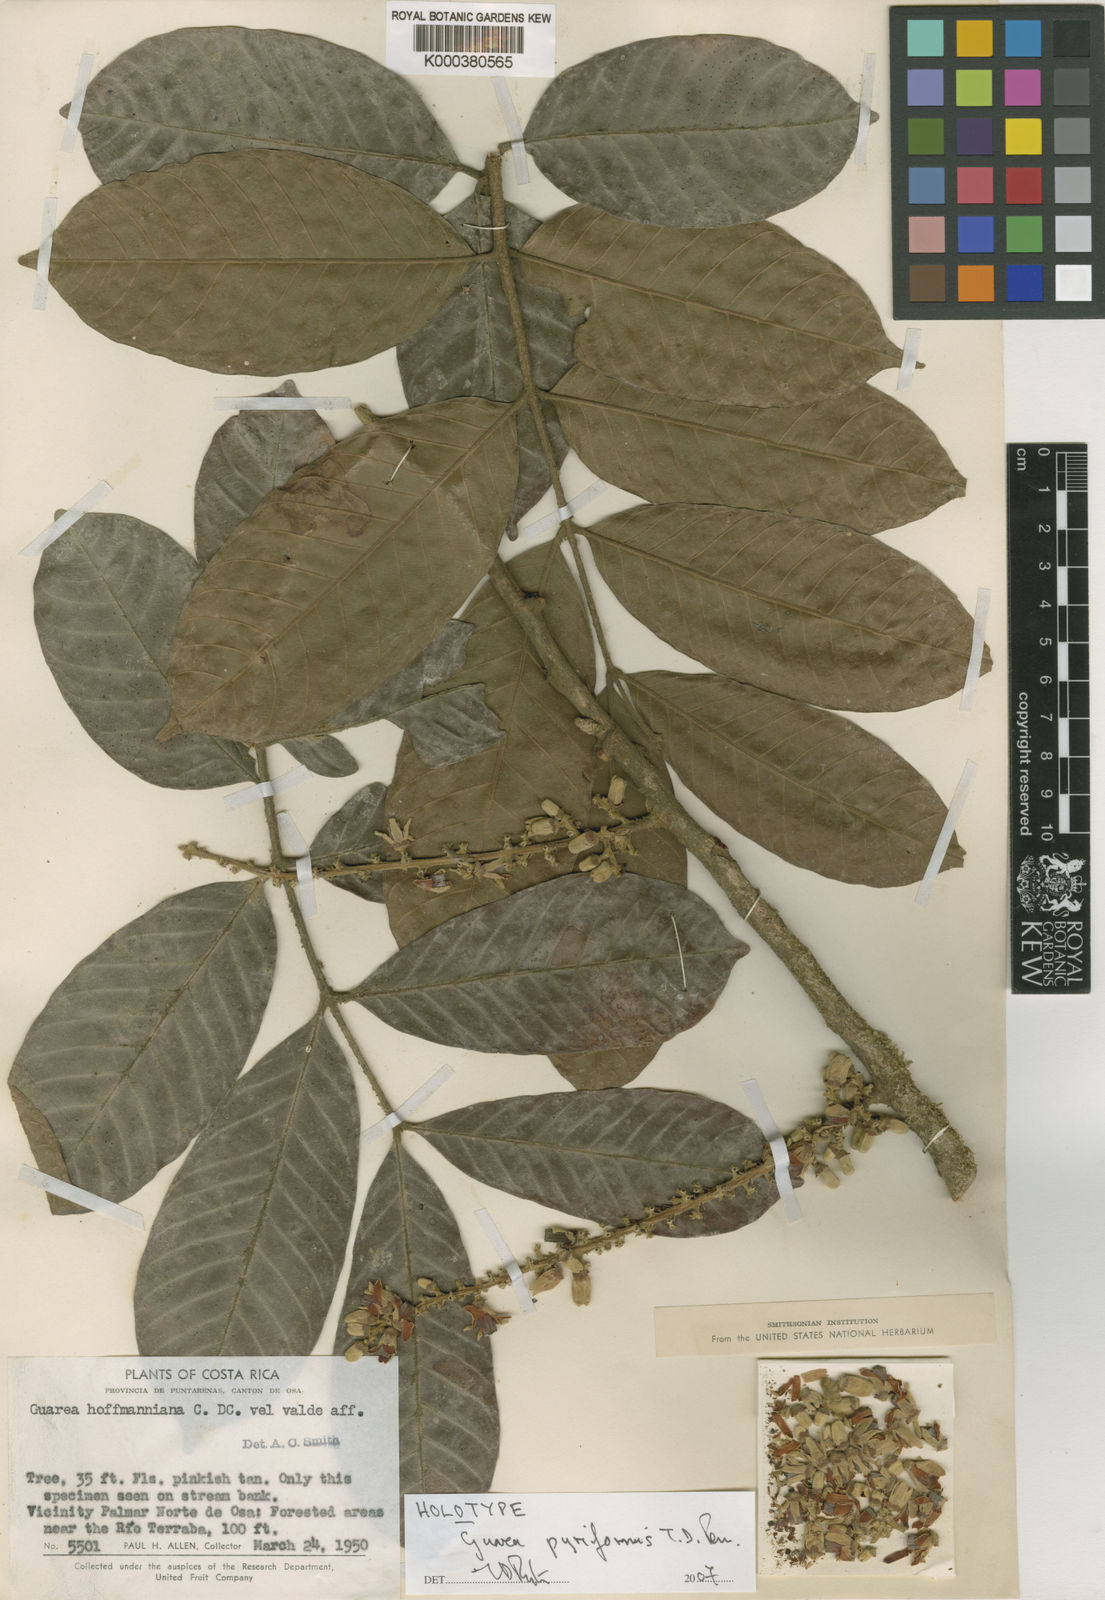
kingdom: Plantae
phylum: Tracheophyta
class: Magnoliopsida
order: Sapindales
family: Meliaceae
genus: Guarea
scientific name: Guarea pyriformis
